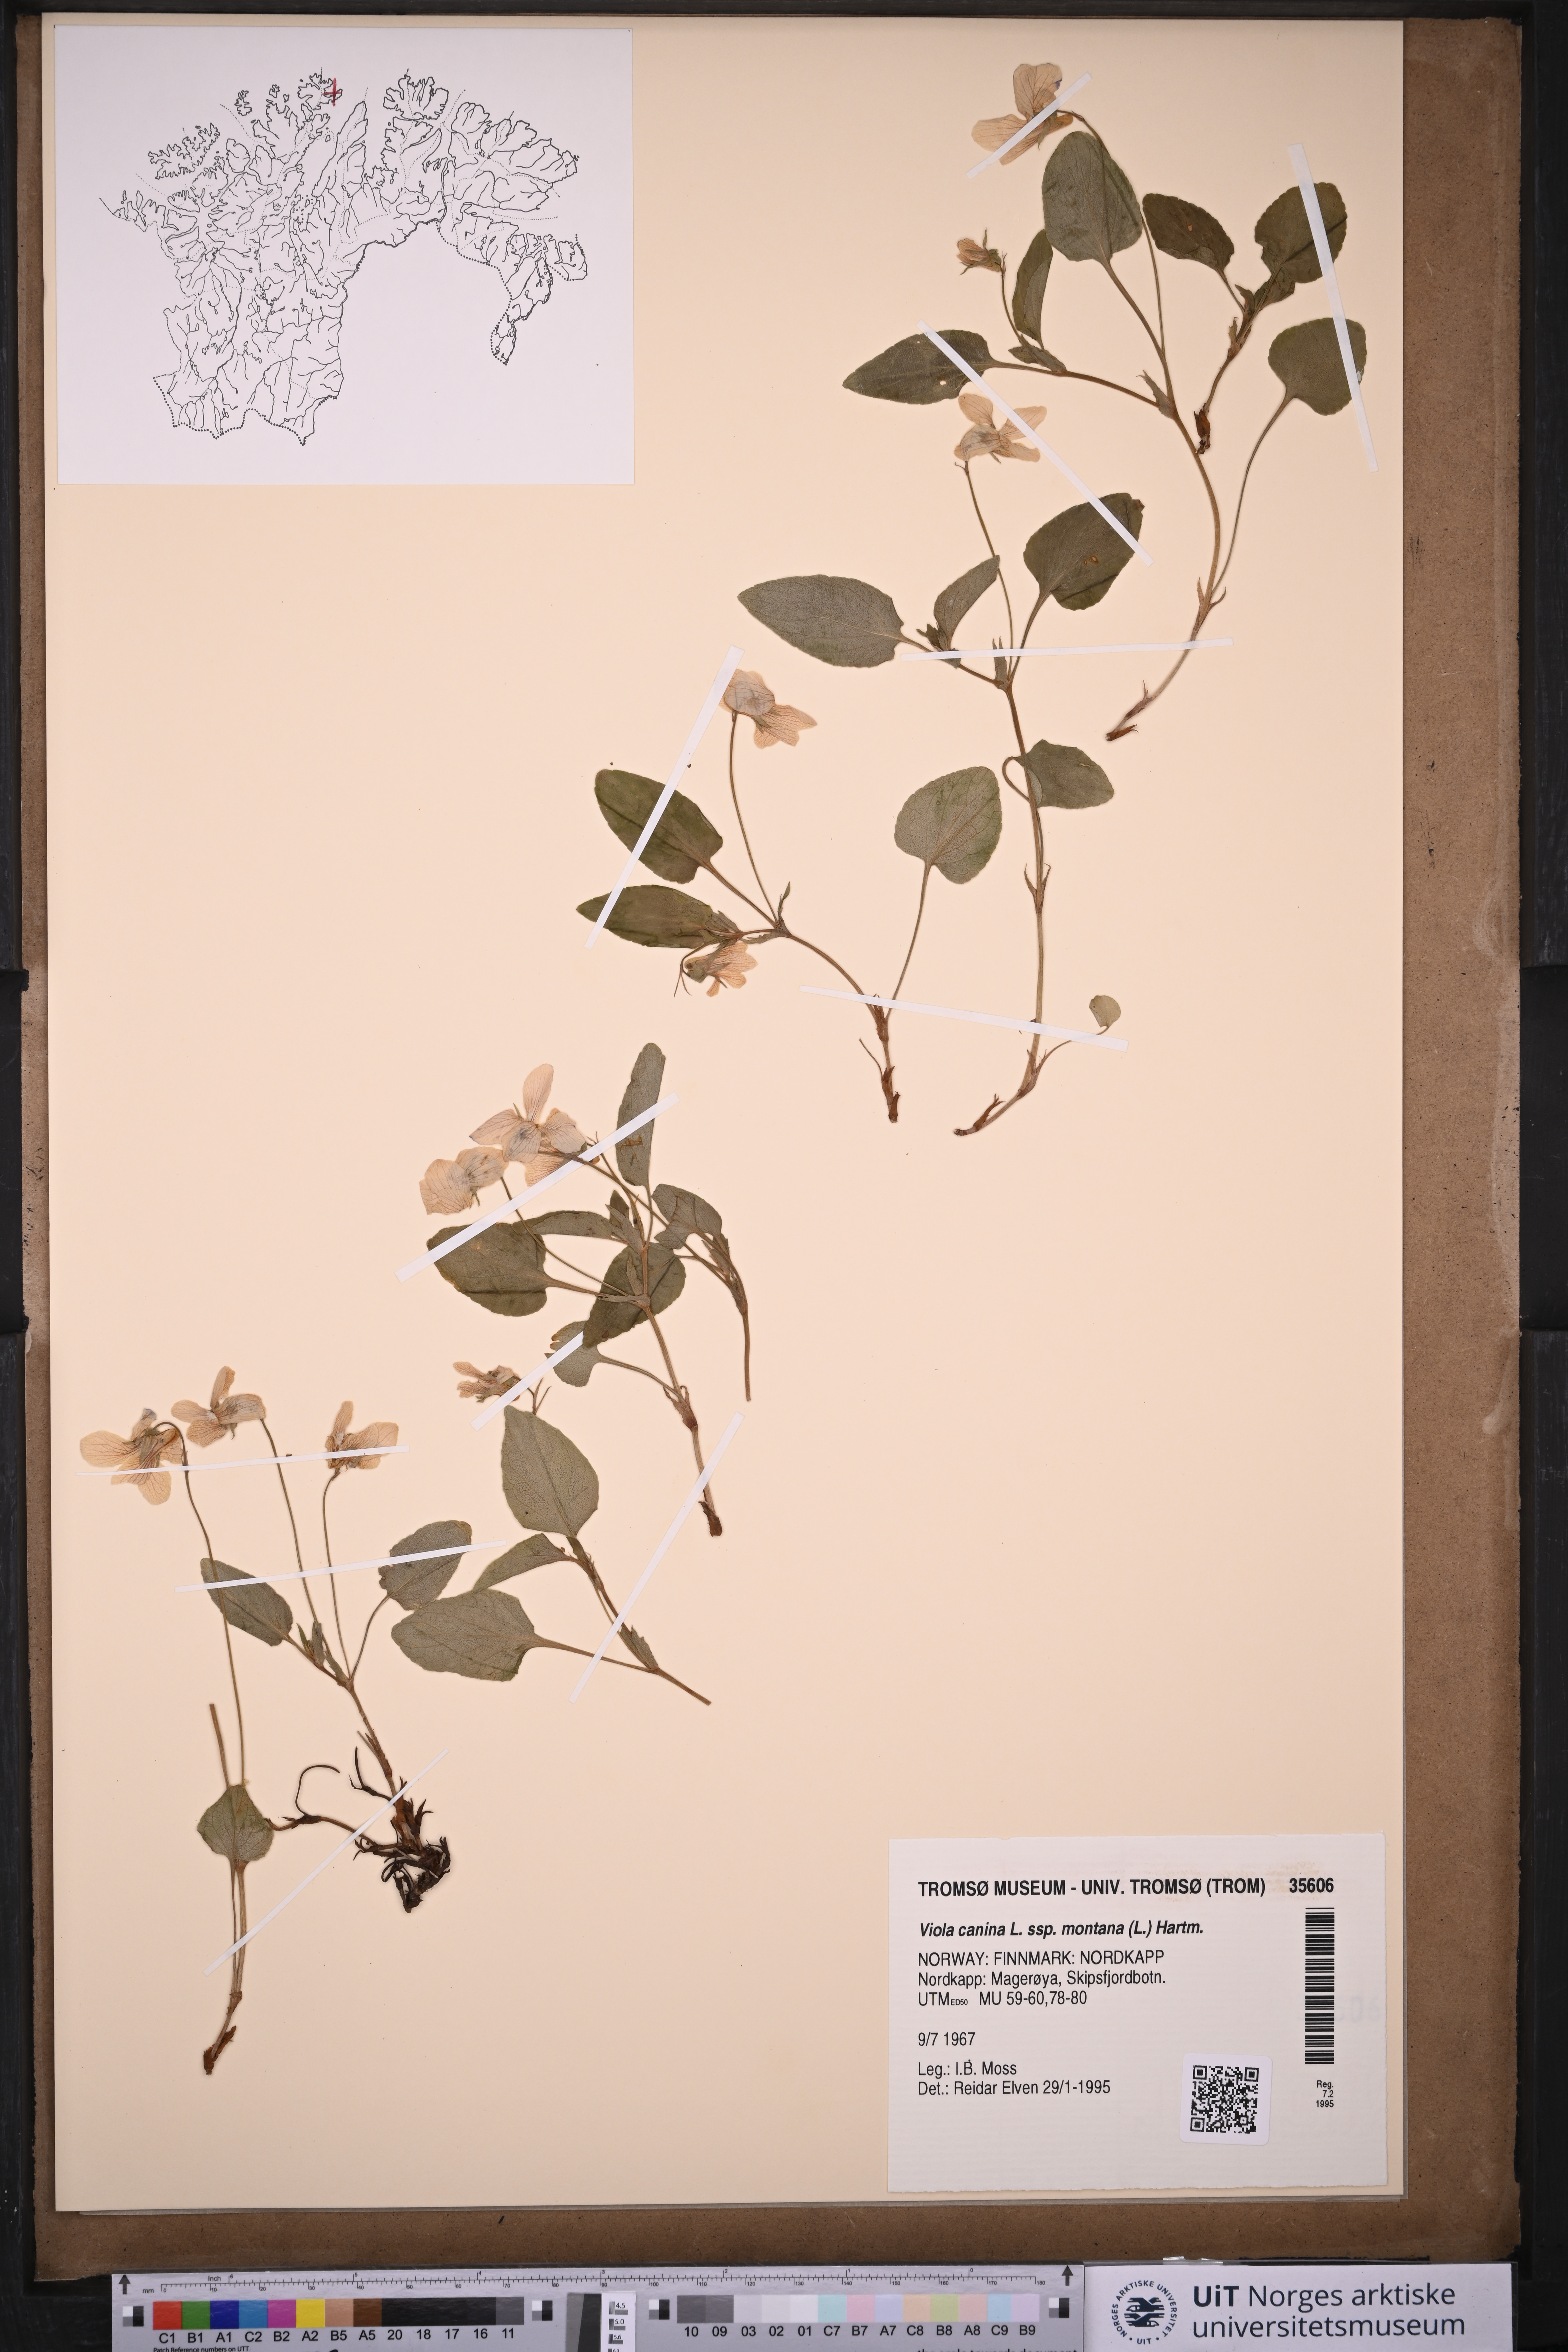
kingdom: Plantae
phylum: Tracheophyta
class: Magnoliopsida
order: Malpighiales
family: Violaceae
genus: Viola
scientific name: Viola ruppii
